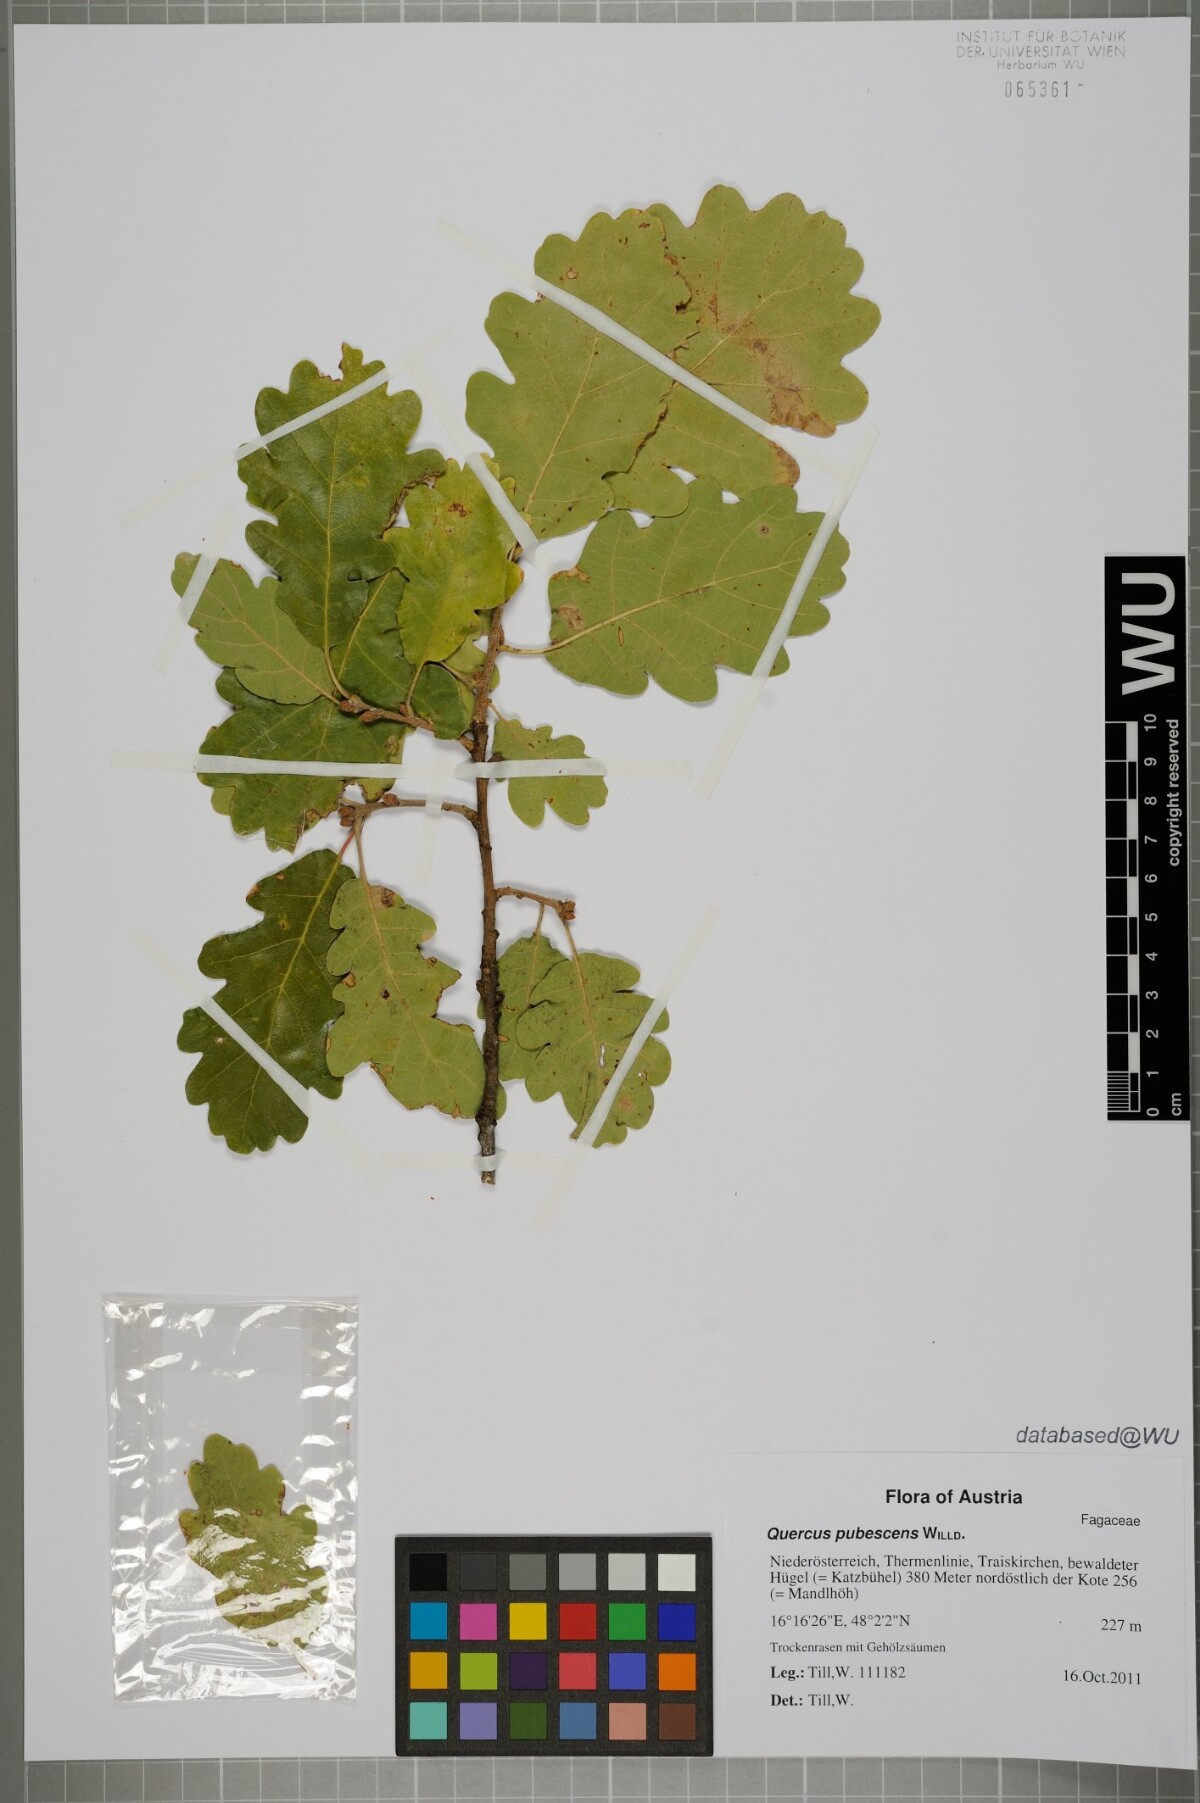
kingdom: Plantae
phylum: Tracheophyta
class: Magnoliopsida
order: Fagales
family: Fagaceae
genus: Quercus
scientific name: Quercus pubescens
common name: Downy oak
